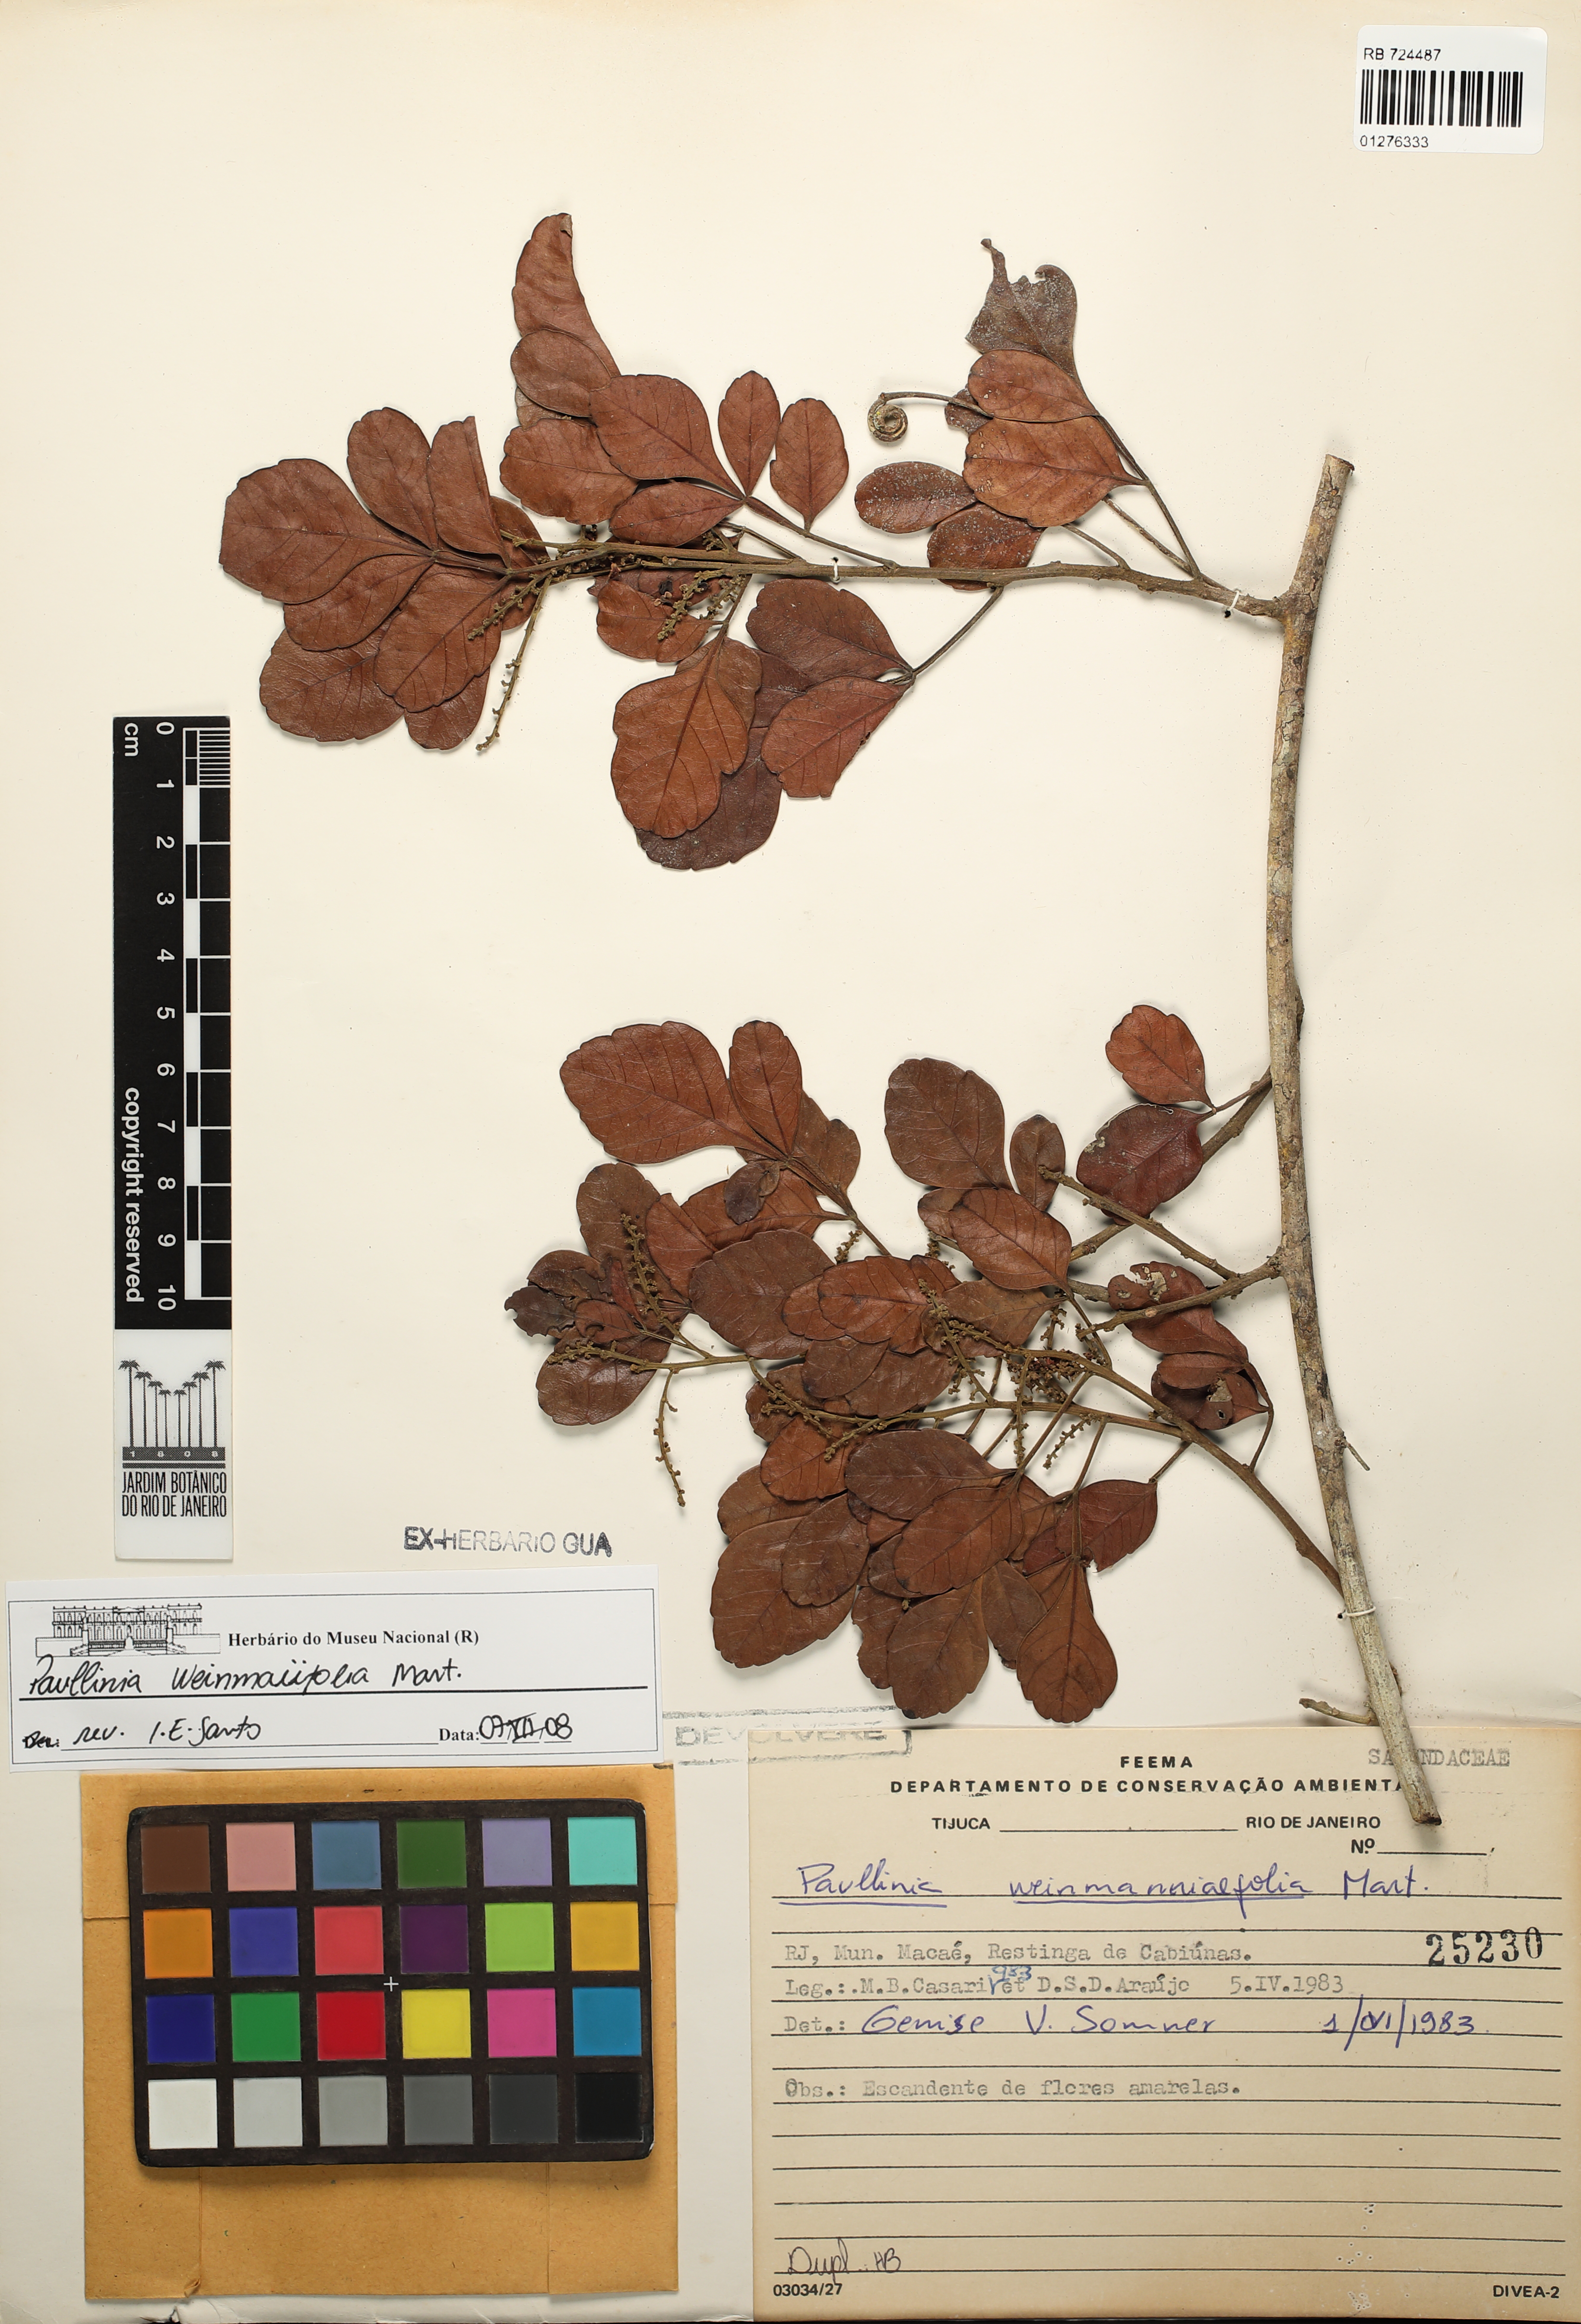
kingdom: Plantae
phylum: Tracheophyta
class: Magnoliopsida
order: Sapindales
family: Sapindaceae
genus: Paullinia
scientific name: Paullinia weinmanniifolia
